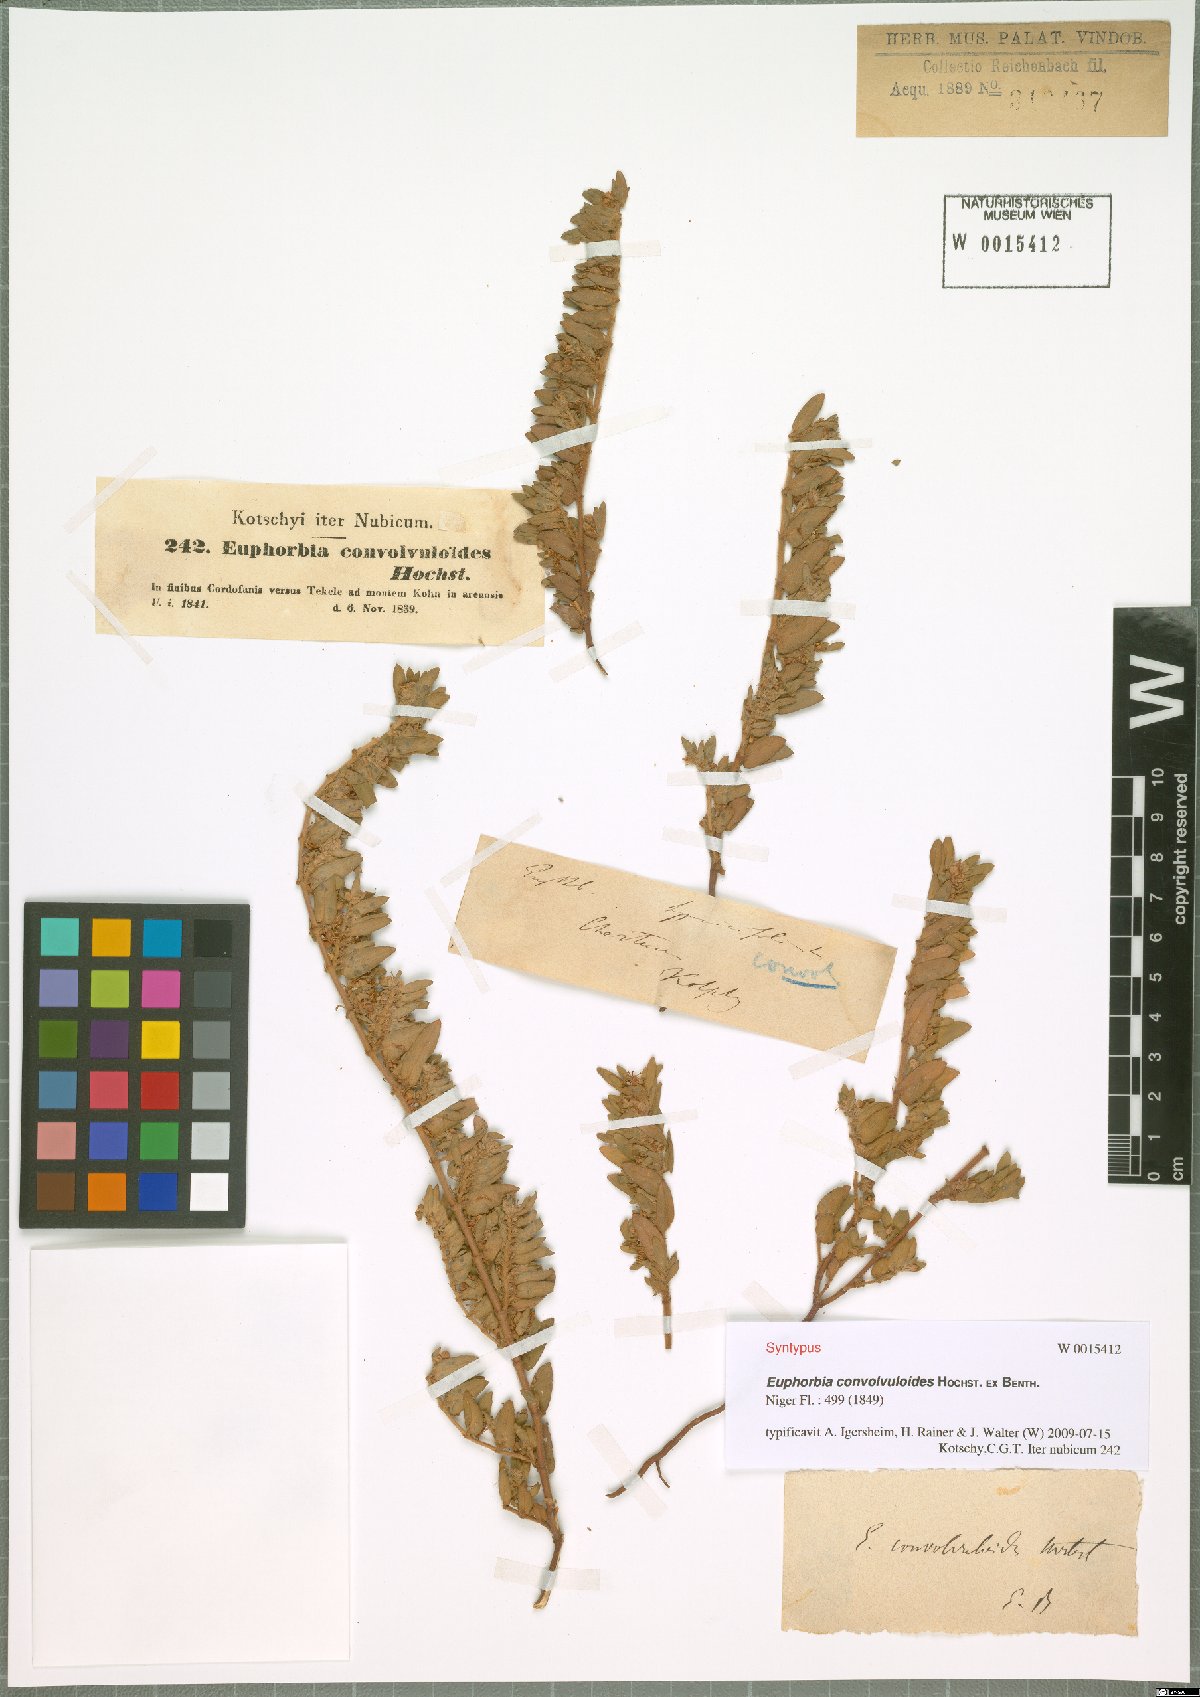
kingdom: Plantae
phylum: Tracheophyta
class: Magnoliopsida
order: Malpighiales
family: Euphorbiaceae
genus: Euphorbia
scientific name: Euphorbia convolvuloides
